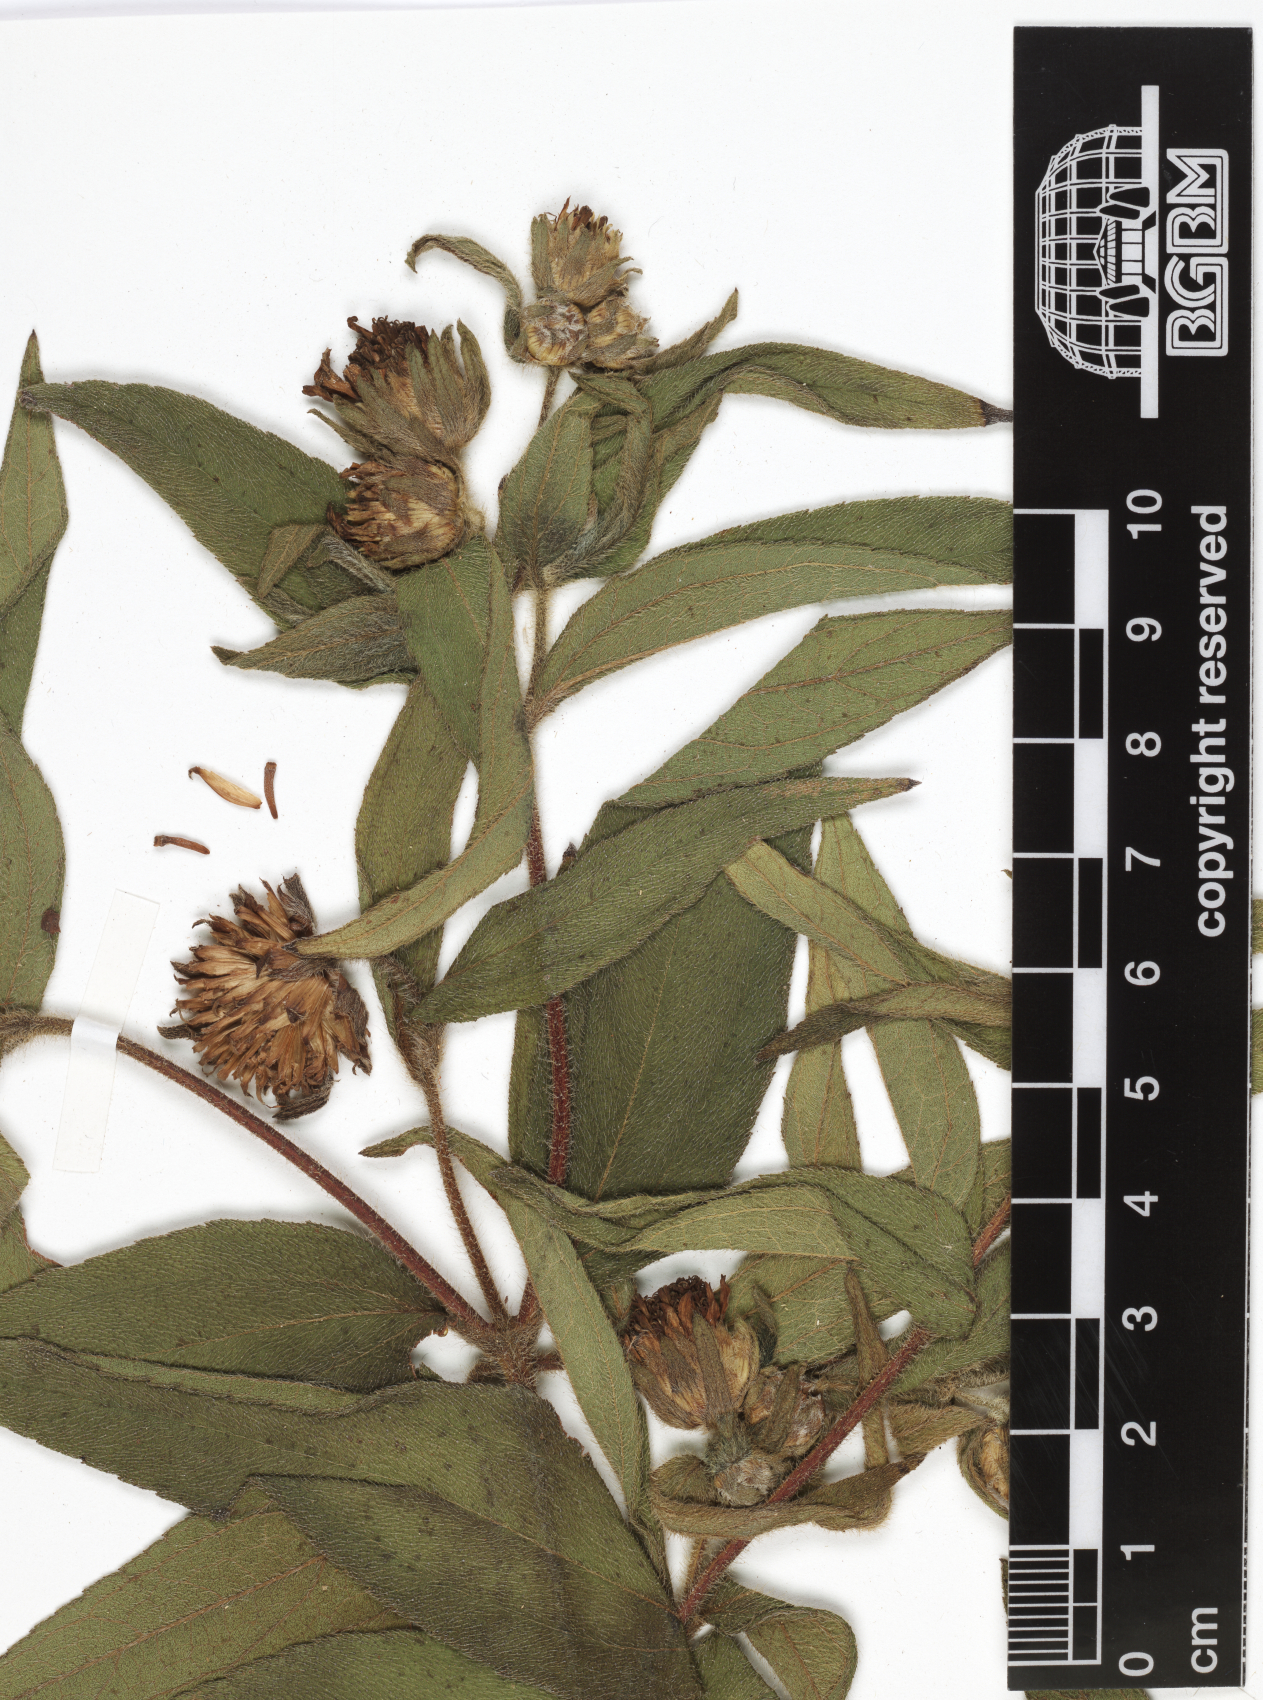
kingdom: Plantae
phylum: Tracheophyta
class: Magnoliopsida
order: Asterales
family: Asteraceae
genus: Aspilia
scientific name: Aspilia kotschyi
